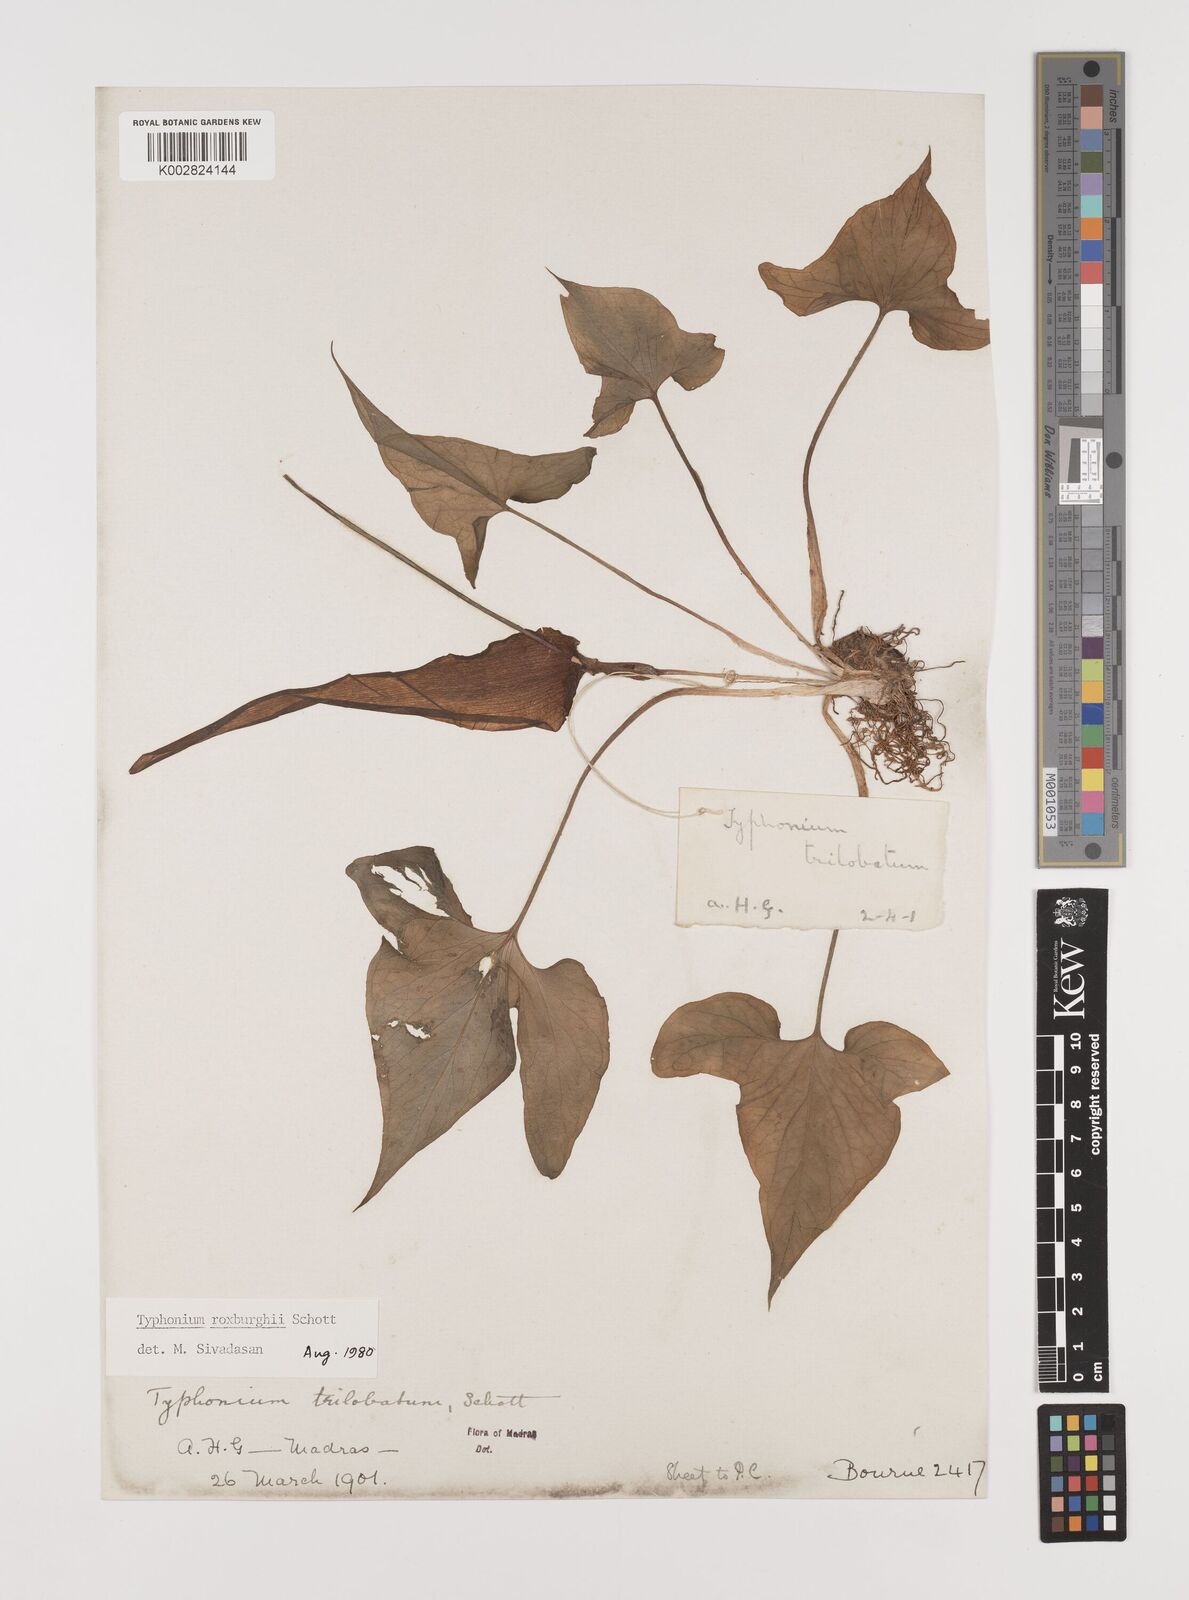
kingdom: Plantae
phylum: Tracheophyta
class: Liliopsida
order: Alismatales
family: Araceae
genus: Typhonium
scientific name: Typhonium roxburghii
